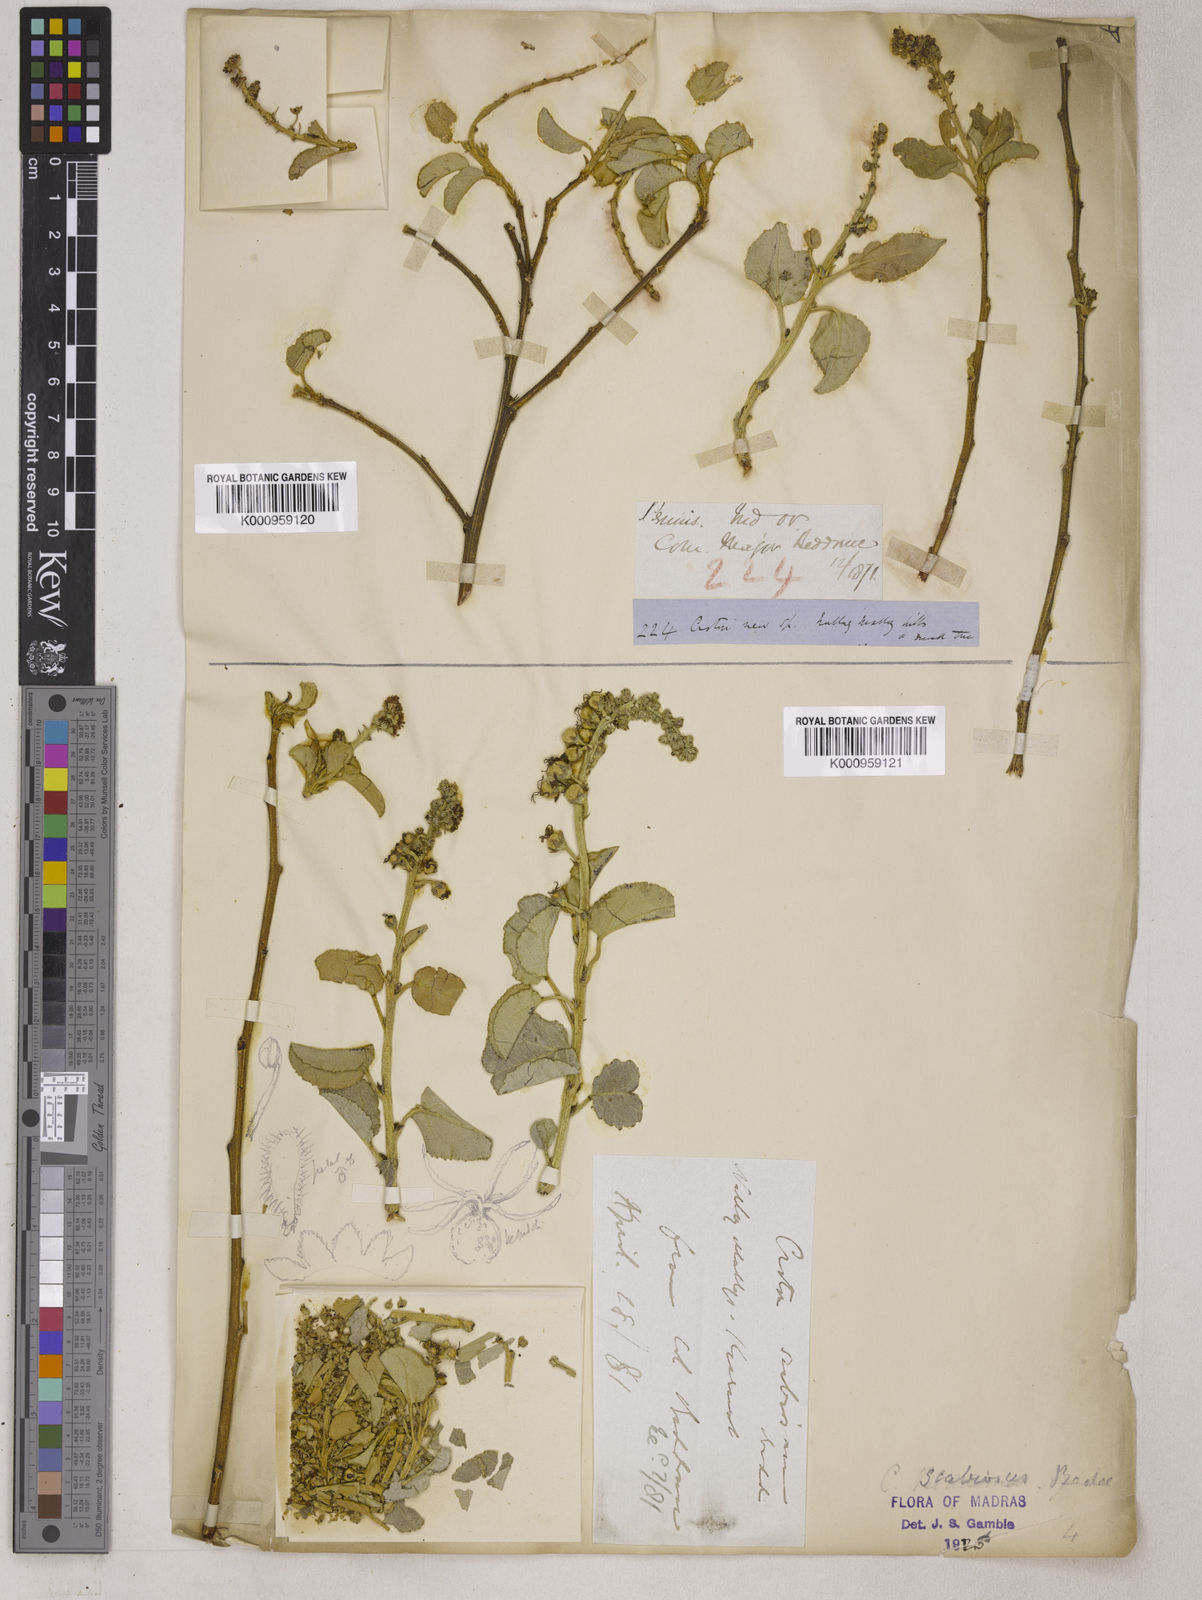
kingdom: Plantae
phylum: Tracheophyta
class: Magnoliopsida
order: Malpighiales
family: Euphorbiaceae
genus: Croton
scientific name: Croton scabiosus
